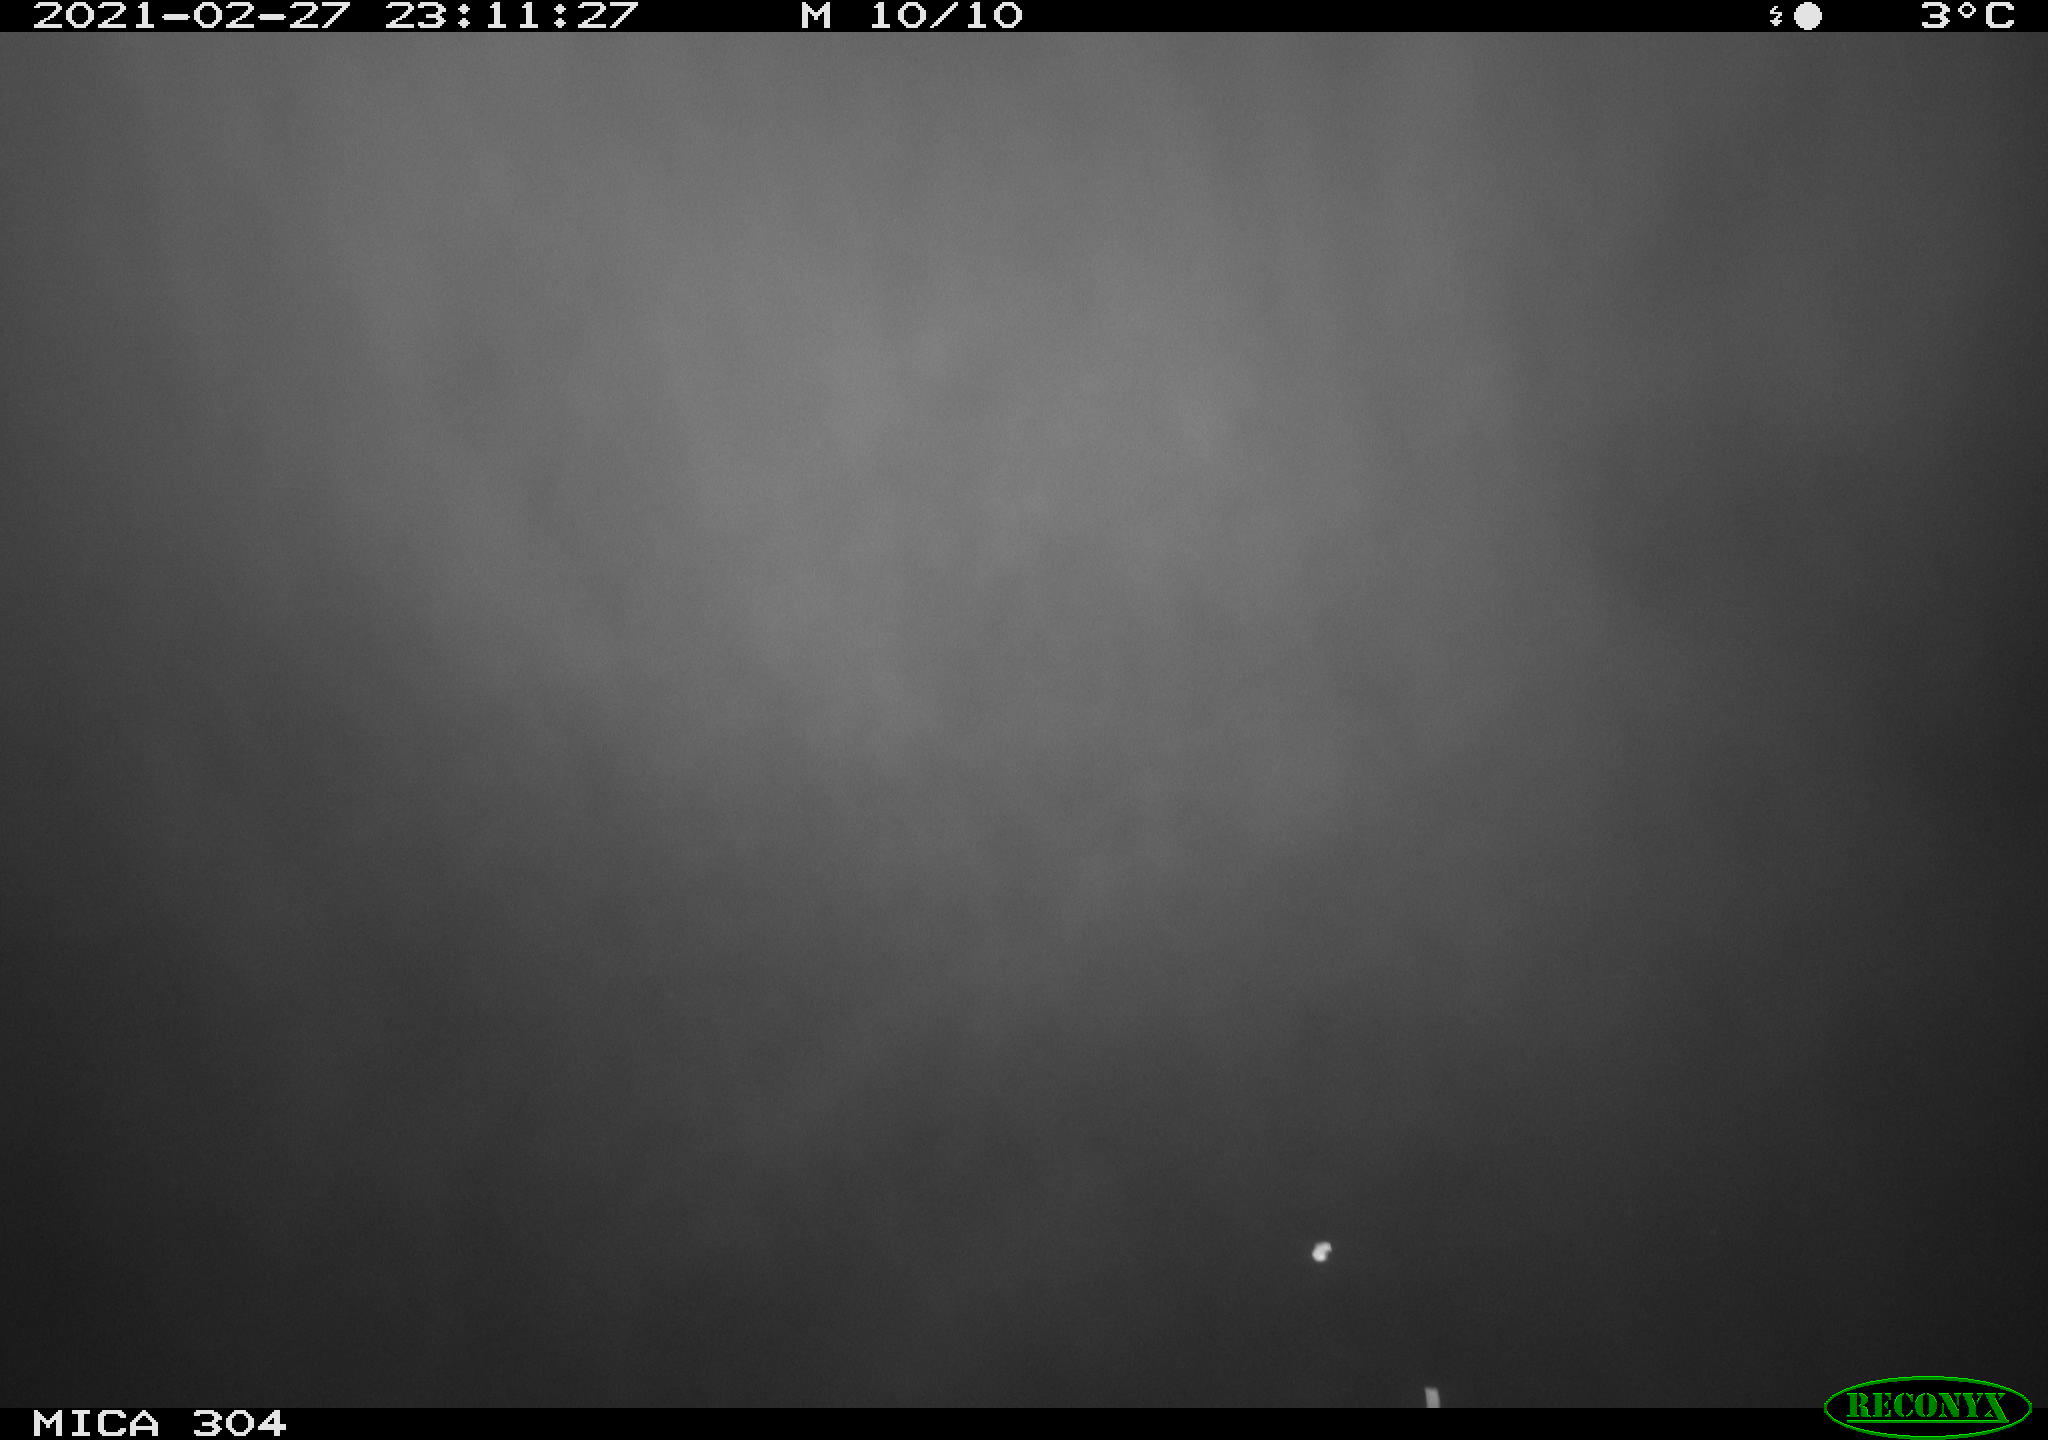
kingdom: Animalia
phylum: Chordata
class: Mammalia
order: Rodentia
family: Cricetidae
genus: Ondatra
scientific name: Ondatra zibethicus
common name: Muskrat
